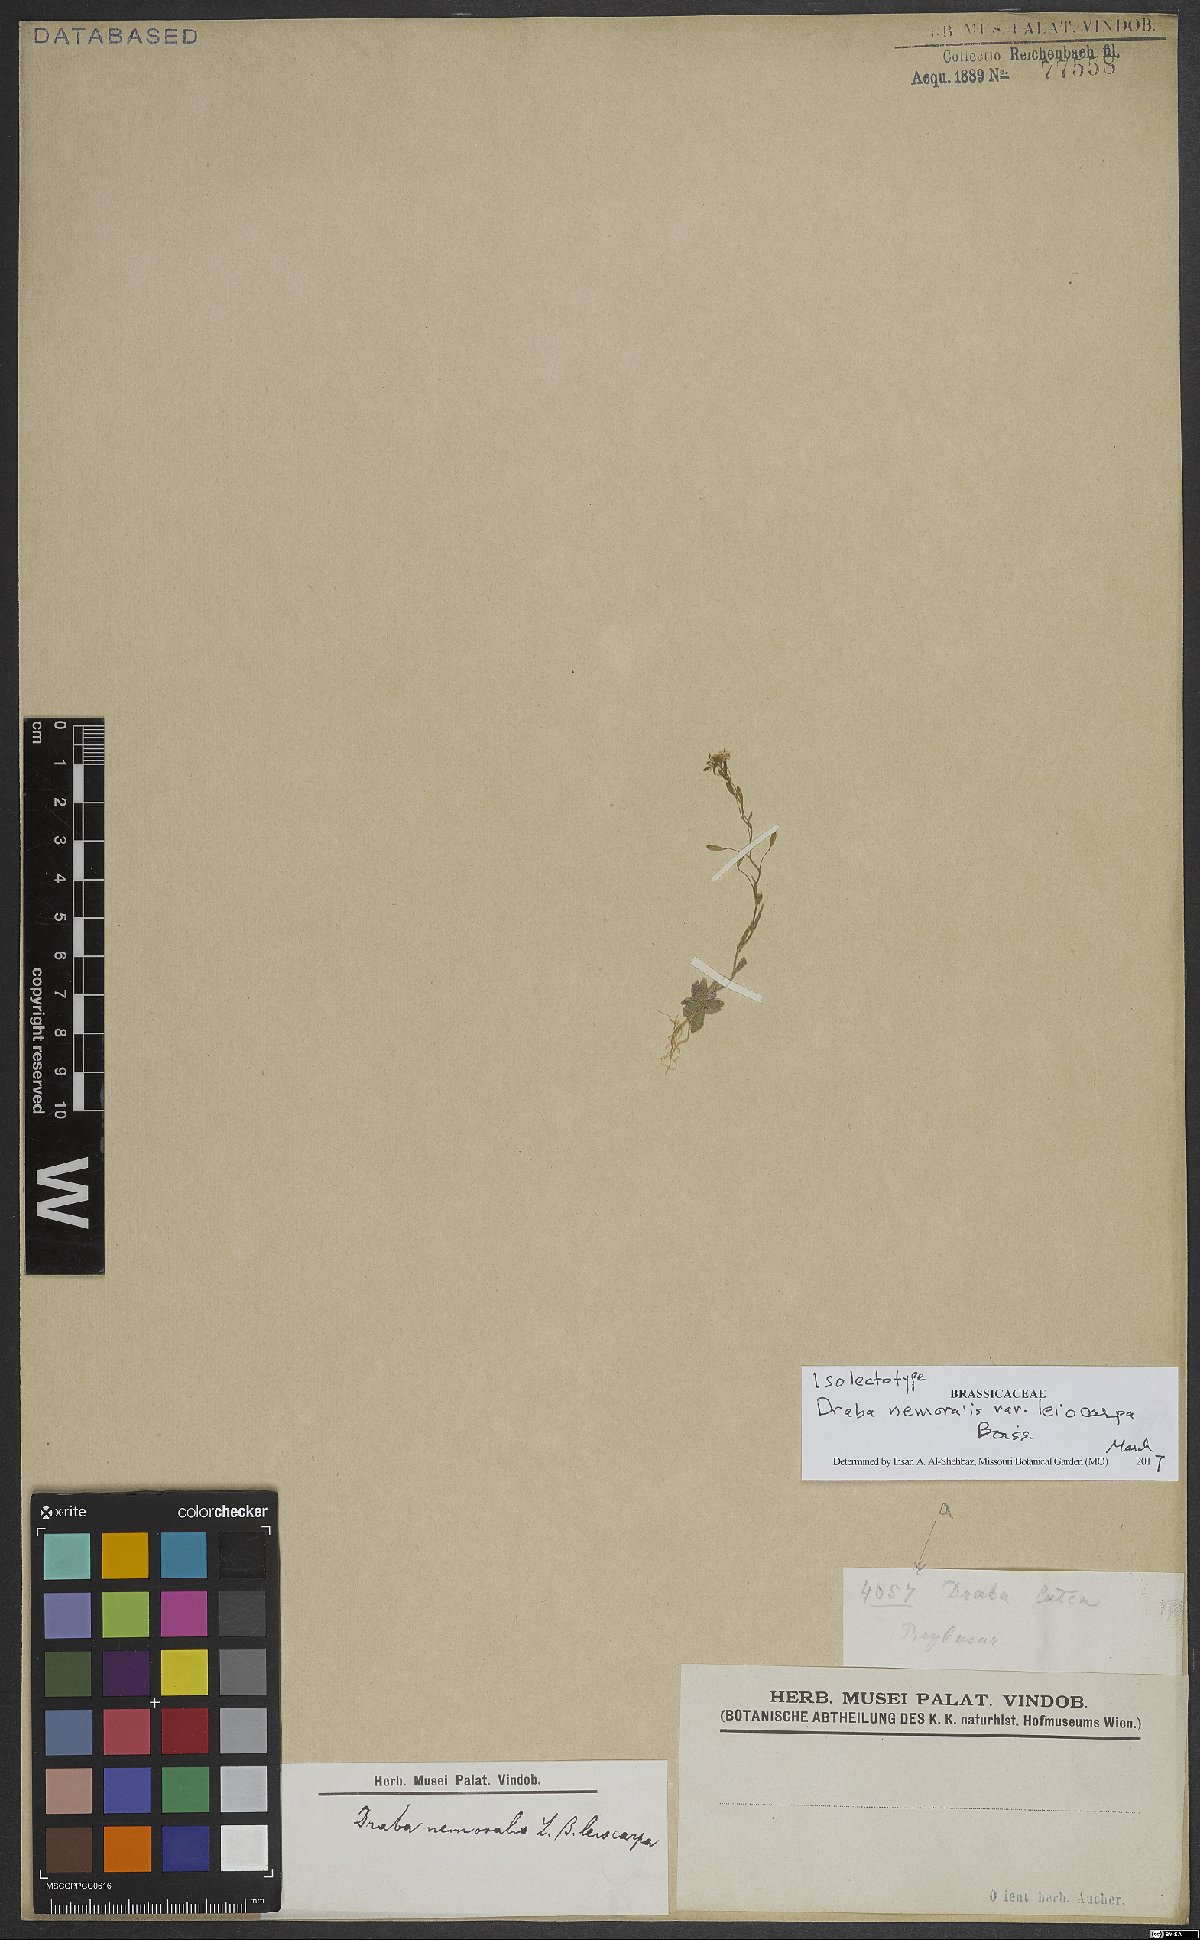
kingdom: Plantae
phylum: Tracheophyta
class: Magnoliopsida
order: Brassicales
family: Brassicaceae
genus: Draba
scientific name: Draba nemorosa
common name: Wood whitlow-grass
